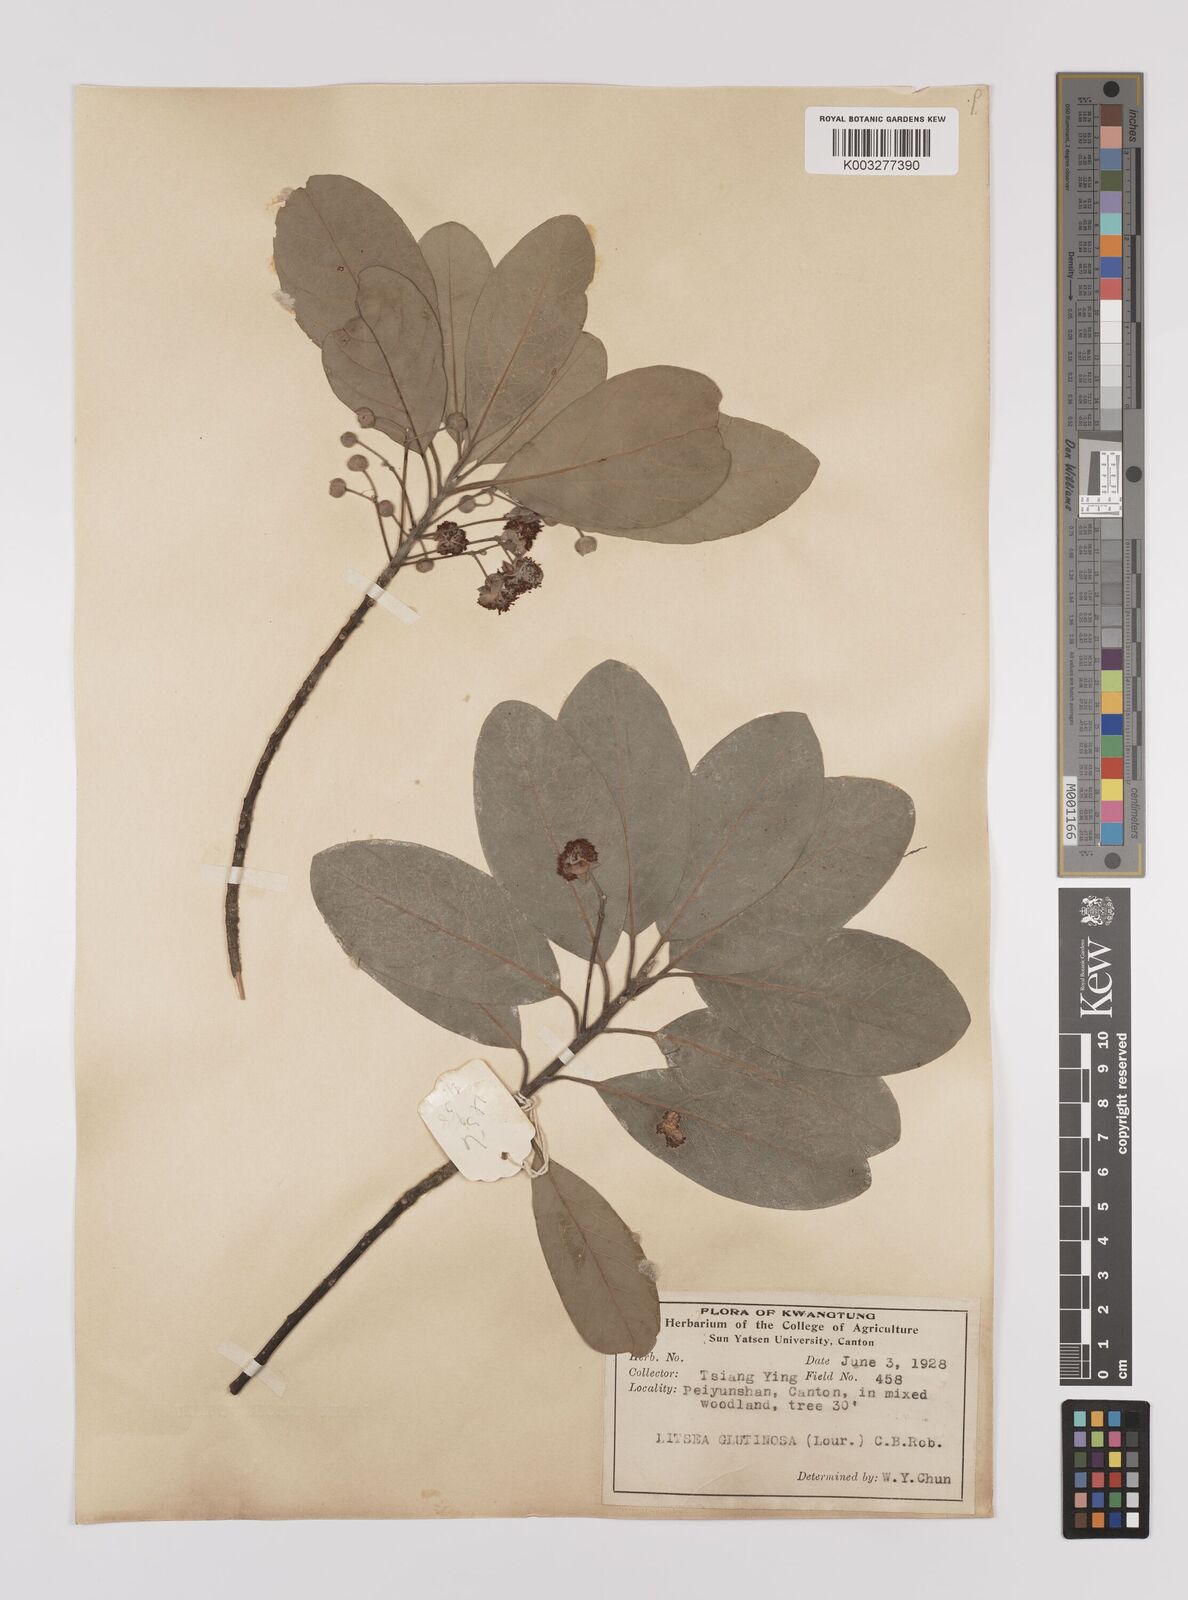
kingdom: Plantae
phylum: Tracheophyta
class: Magnoliopsida
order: Laurales
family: Lauraceae
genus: Litsea
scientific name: Litsea glutinosa
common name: Indian-laurel
